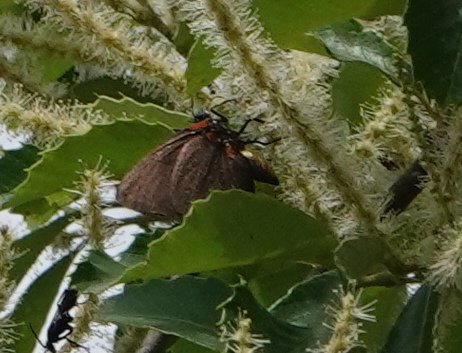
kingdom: Animalia
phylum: Arthropoda
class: Insecta
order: Lepidoptera
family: Lycaenidae
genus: Atlides
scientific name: Atlides halesus
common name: Great Purple Hairstreak
